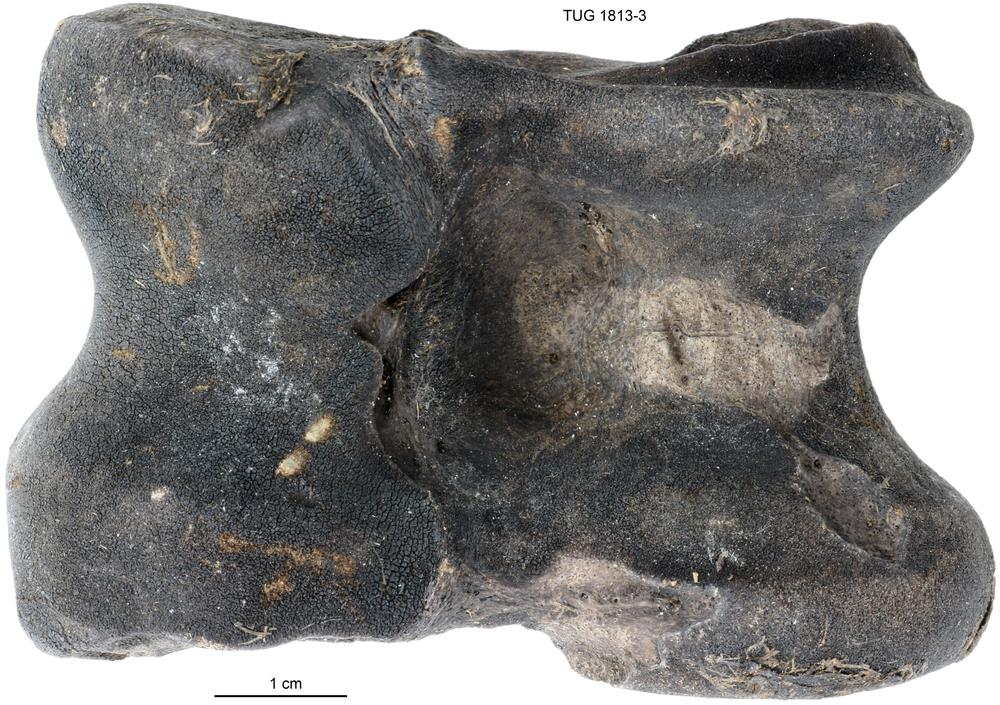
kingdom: Animalia
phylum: Chordata
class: Mammalia
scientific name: Mammalia
